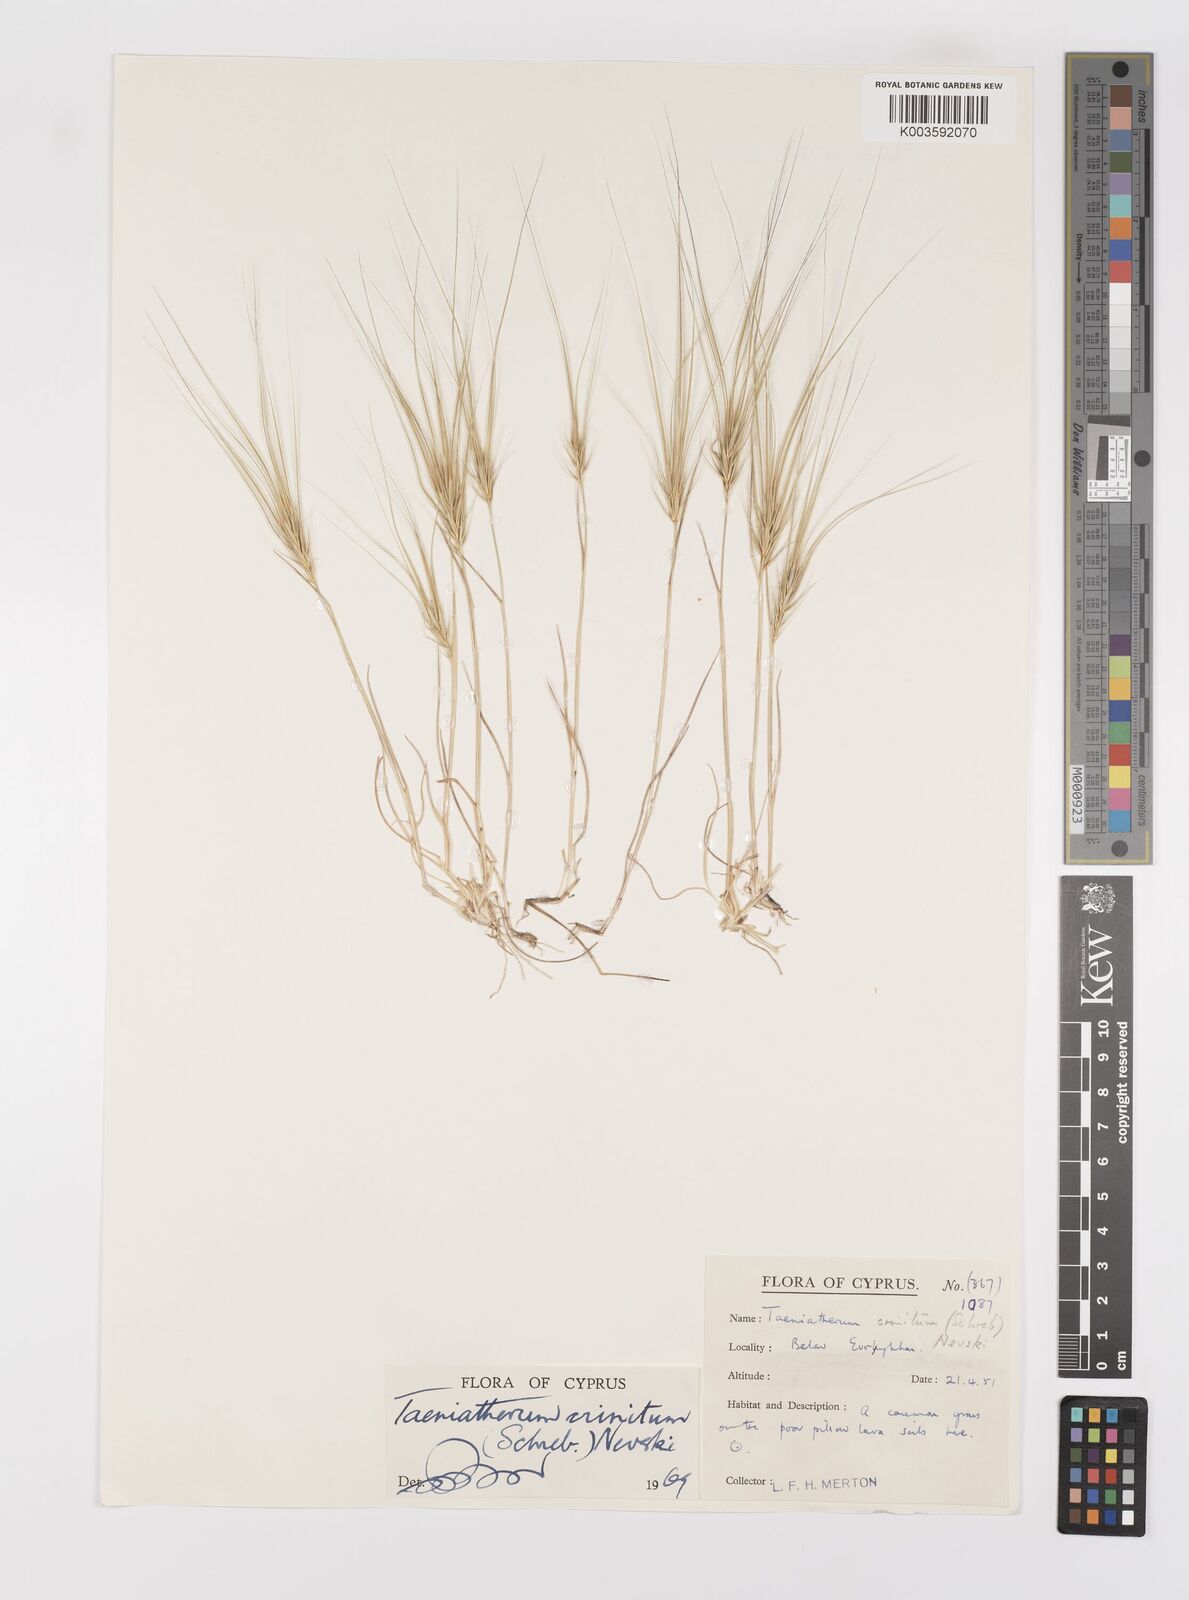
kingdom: Plantae
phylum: Tracheophyta
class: Liliopsida
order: Poales
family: Poaceae
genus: Taeniatherum
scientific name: Taeniatherum caput-medusae
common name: Medusahead
